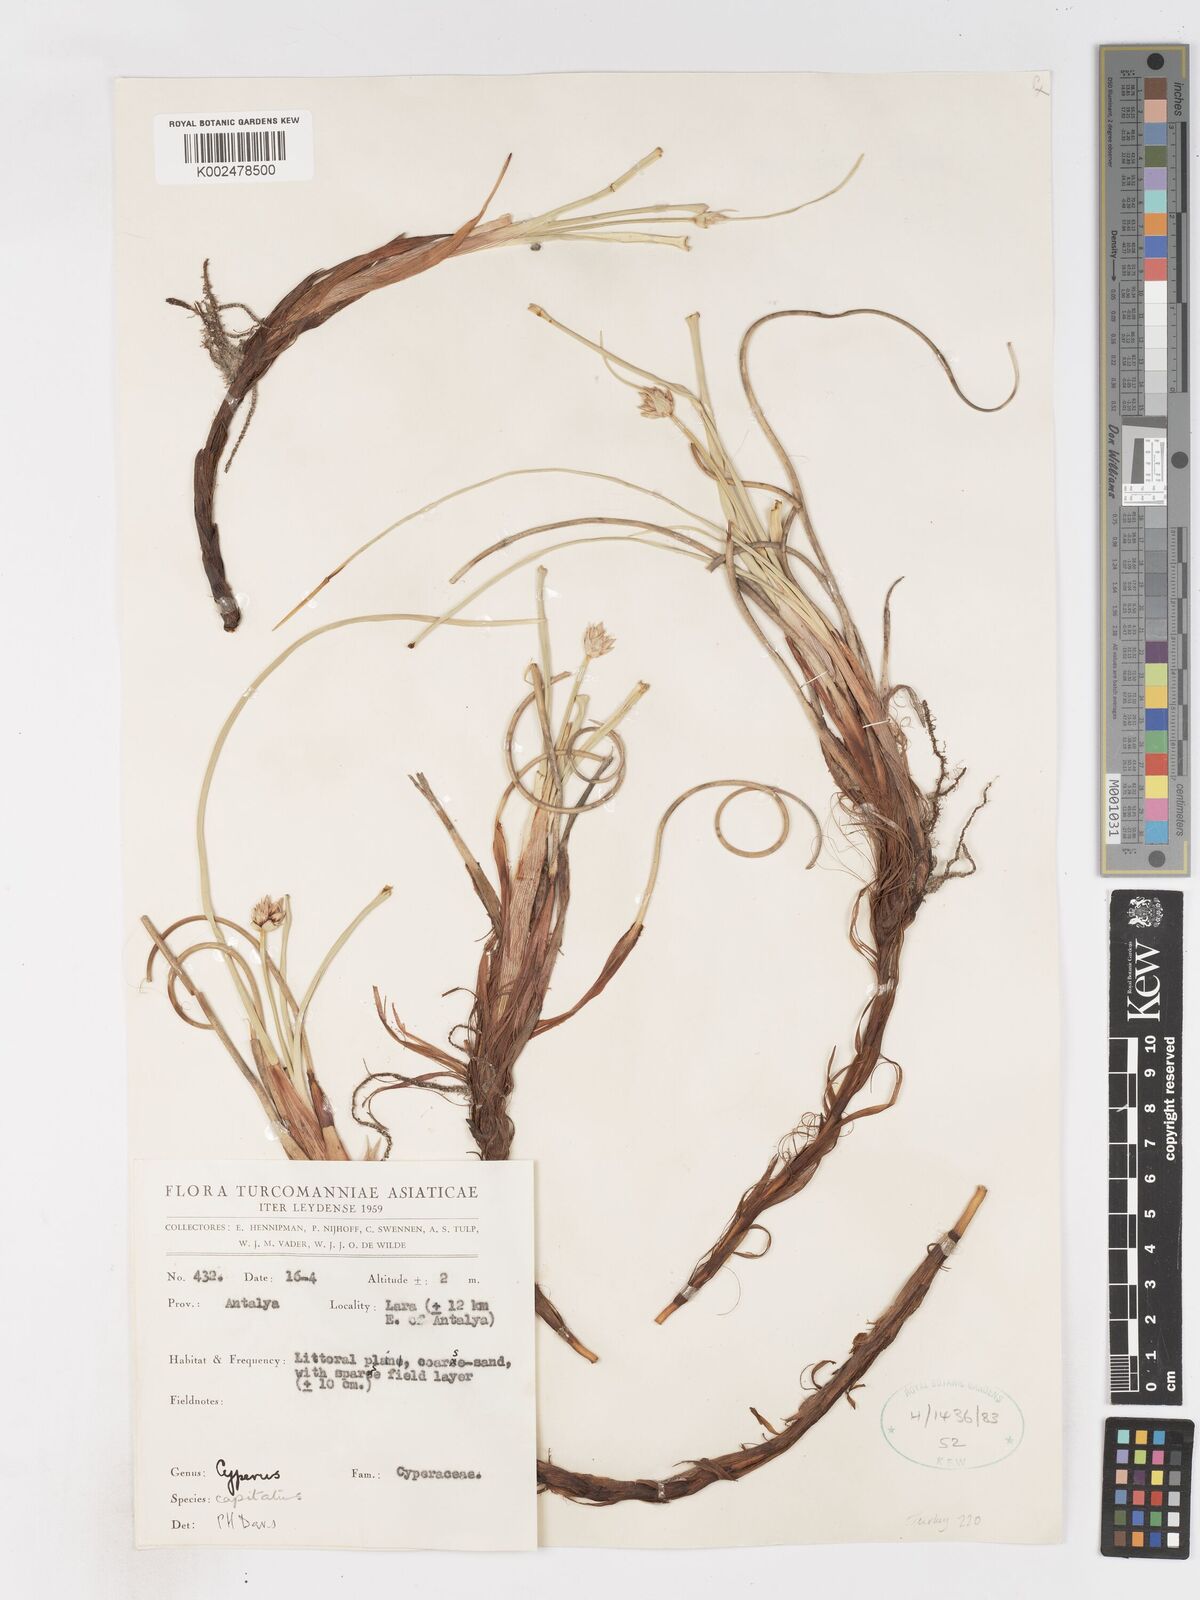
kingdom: Plantae
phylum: Tracheophyta
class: Liliopsida
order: Poales
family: Cyperaceae
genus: Cyperus
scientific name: Cyperus capitatus
